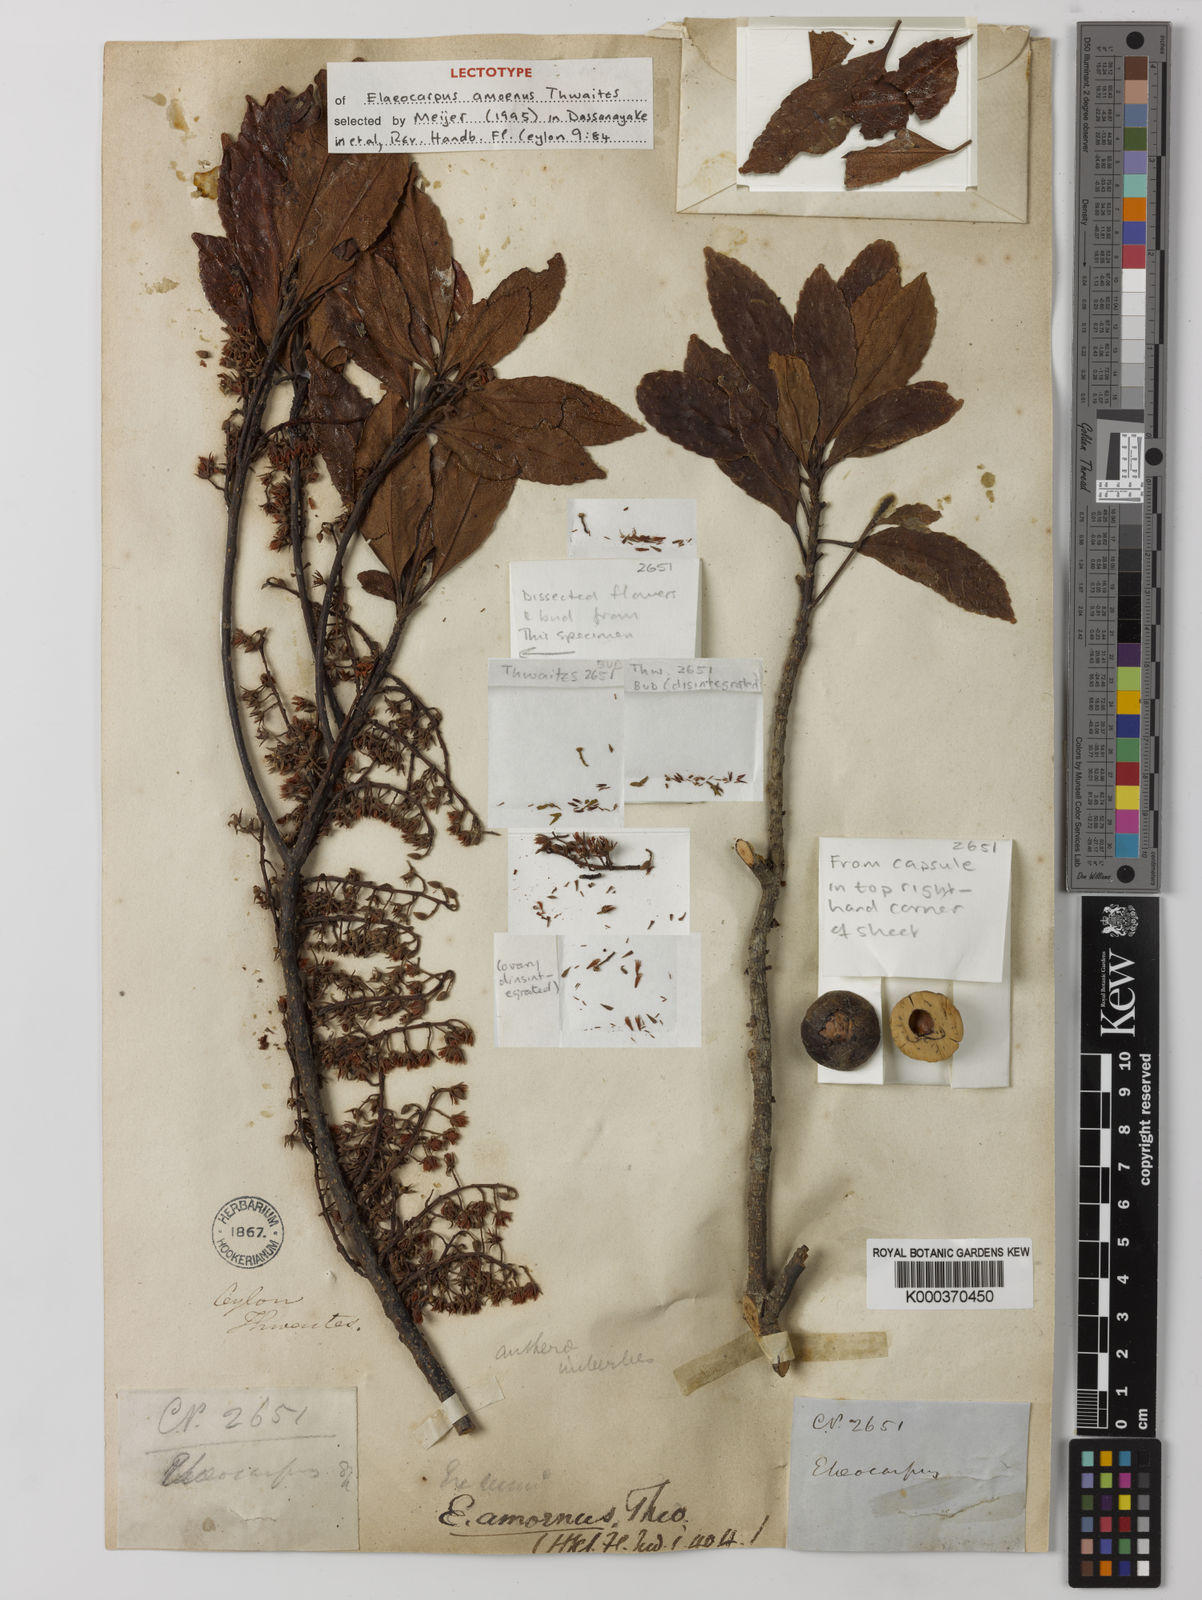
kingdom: Plantae
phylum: Tracheophyta
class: Magnoliopsida
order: Oxalidales
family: Elaeocarpaceae
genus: Elaeocarpus
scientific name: Elaeocarpus amoenus
